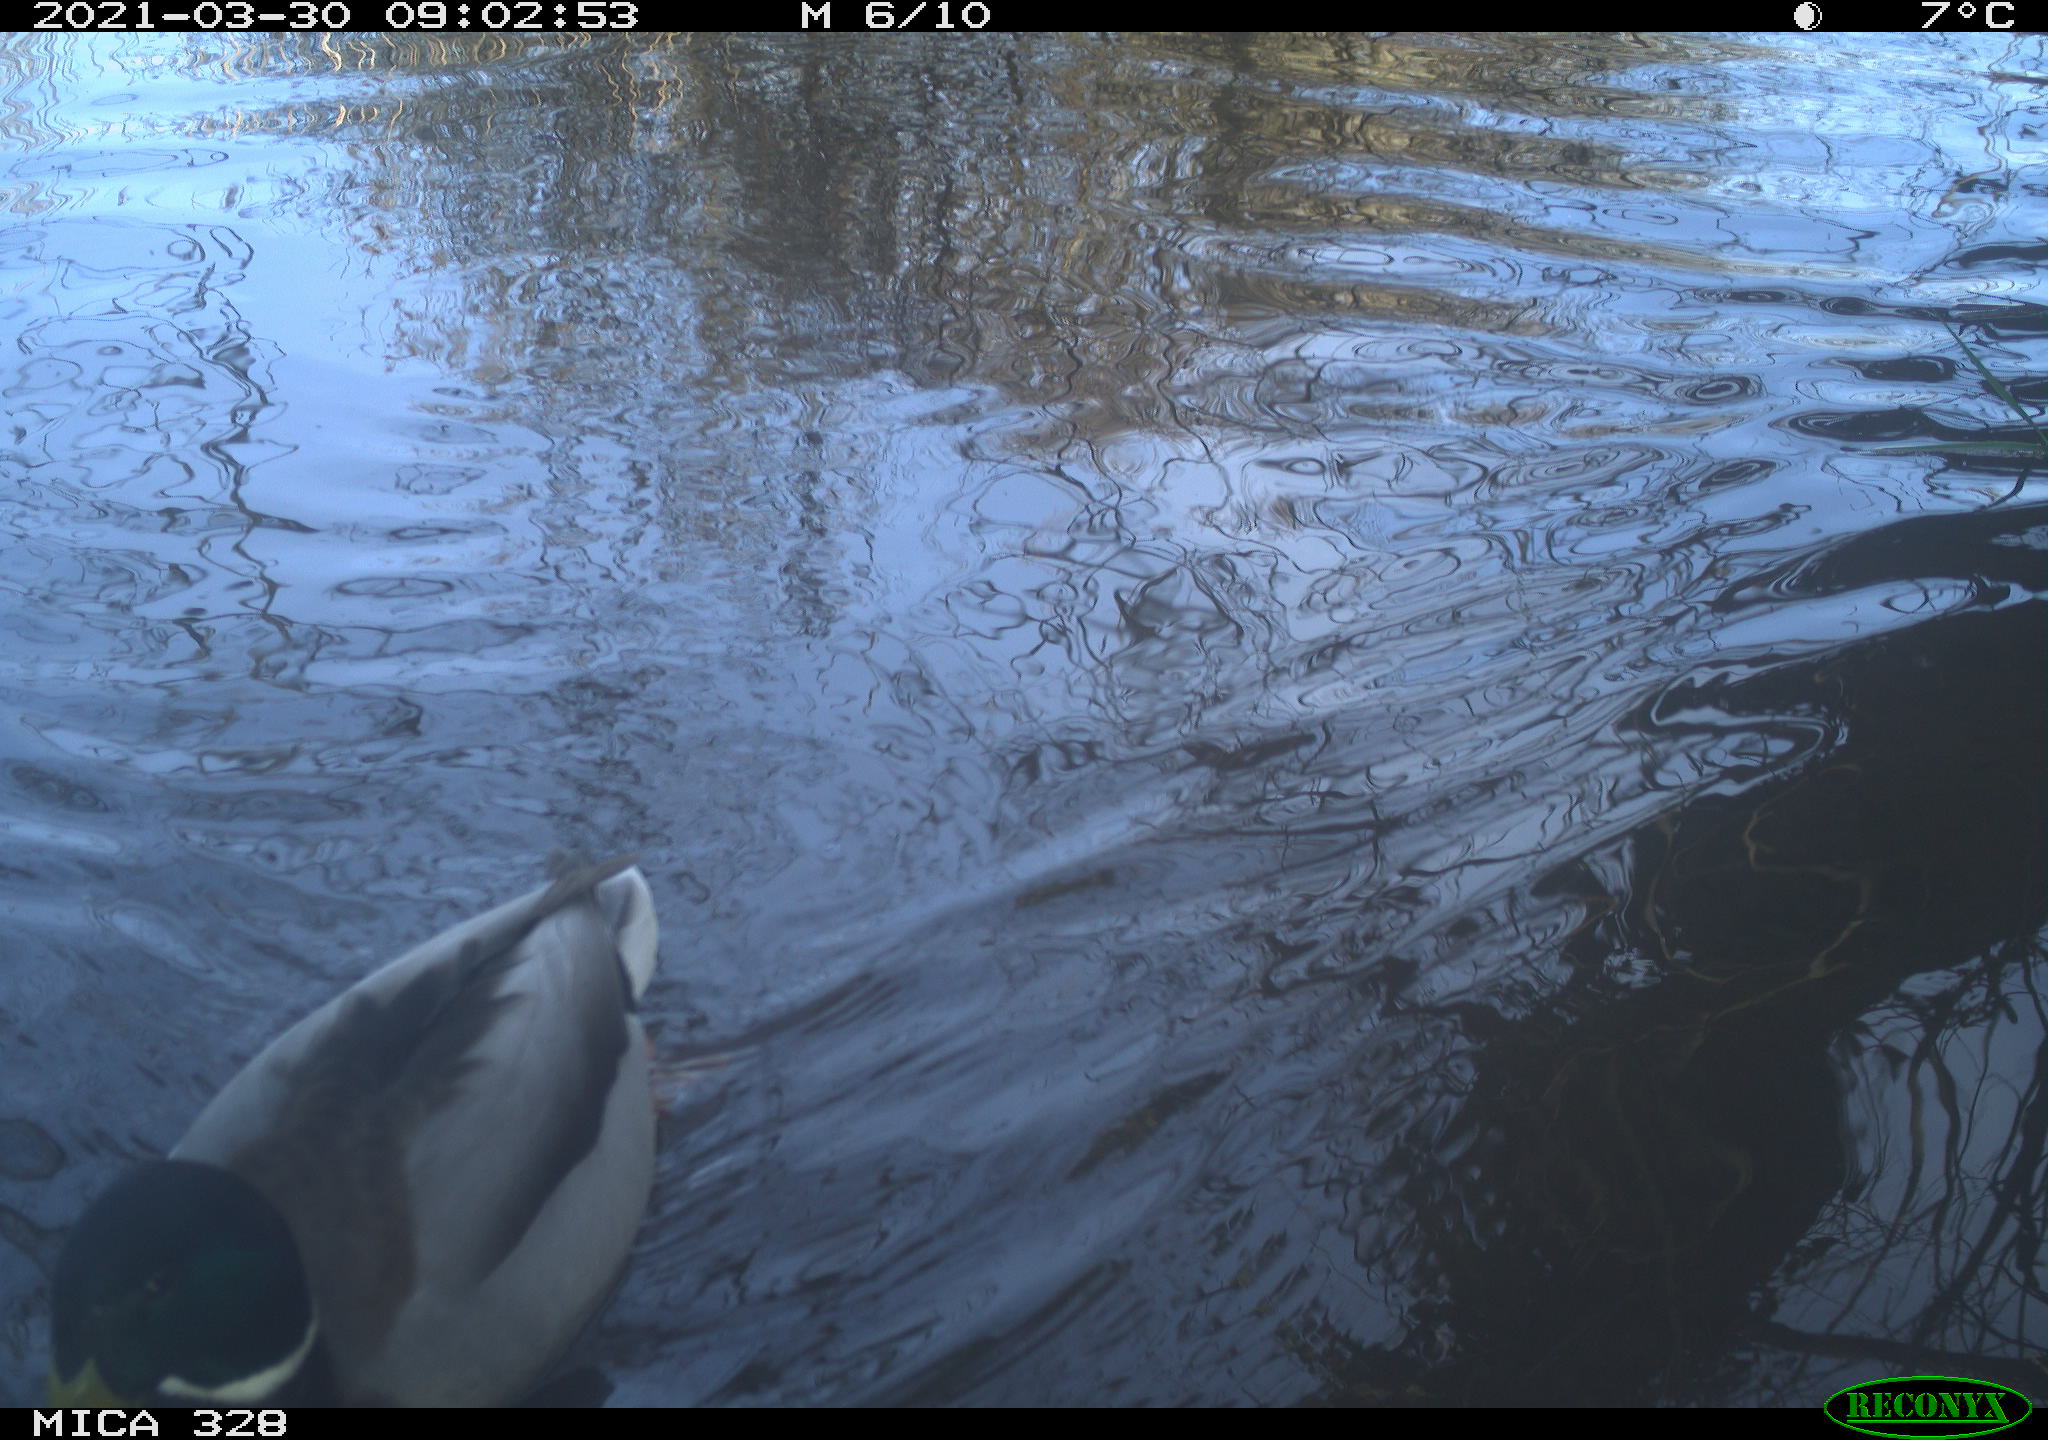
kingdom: Animalia
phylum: Chordata
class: Aves
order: Anseriformes
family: Anatidae
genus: Anas
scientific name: Anas platyrhynchos
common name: Mallard
